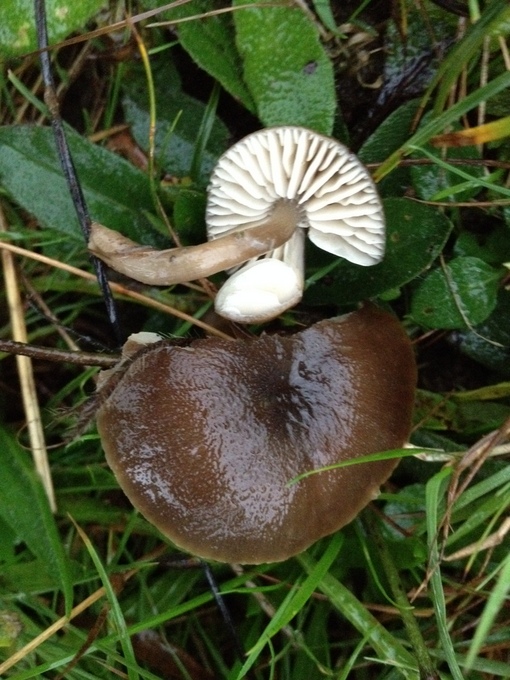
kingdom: Fungi
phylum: Basidiomycota
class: Agaricomycetes
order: Agaricales
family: Hygrophoraceae
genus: Neohygrocybe
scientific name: Neohygrocybe nitrata
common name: stinkende vokshat
